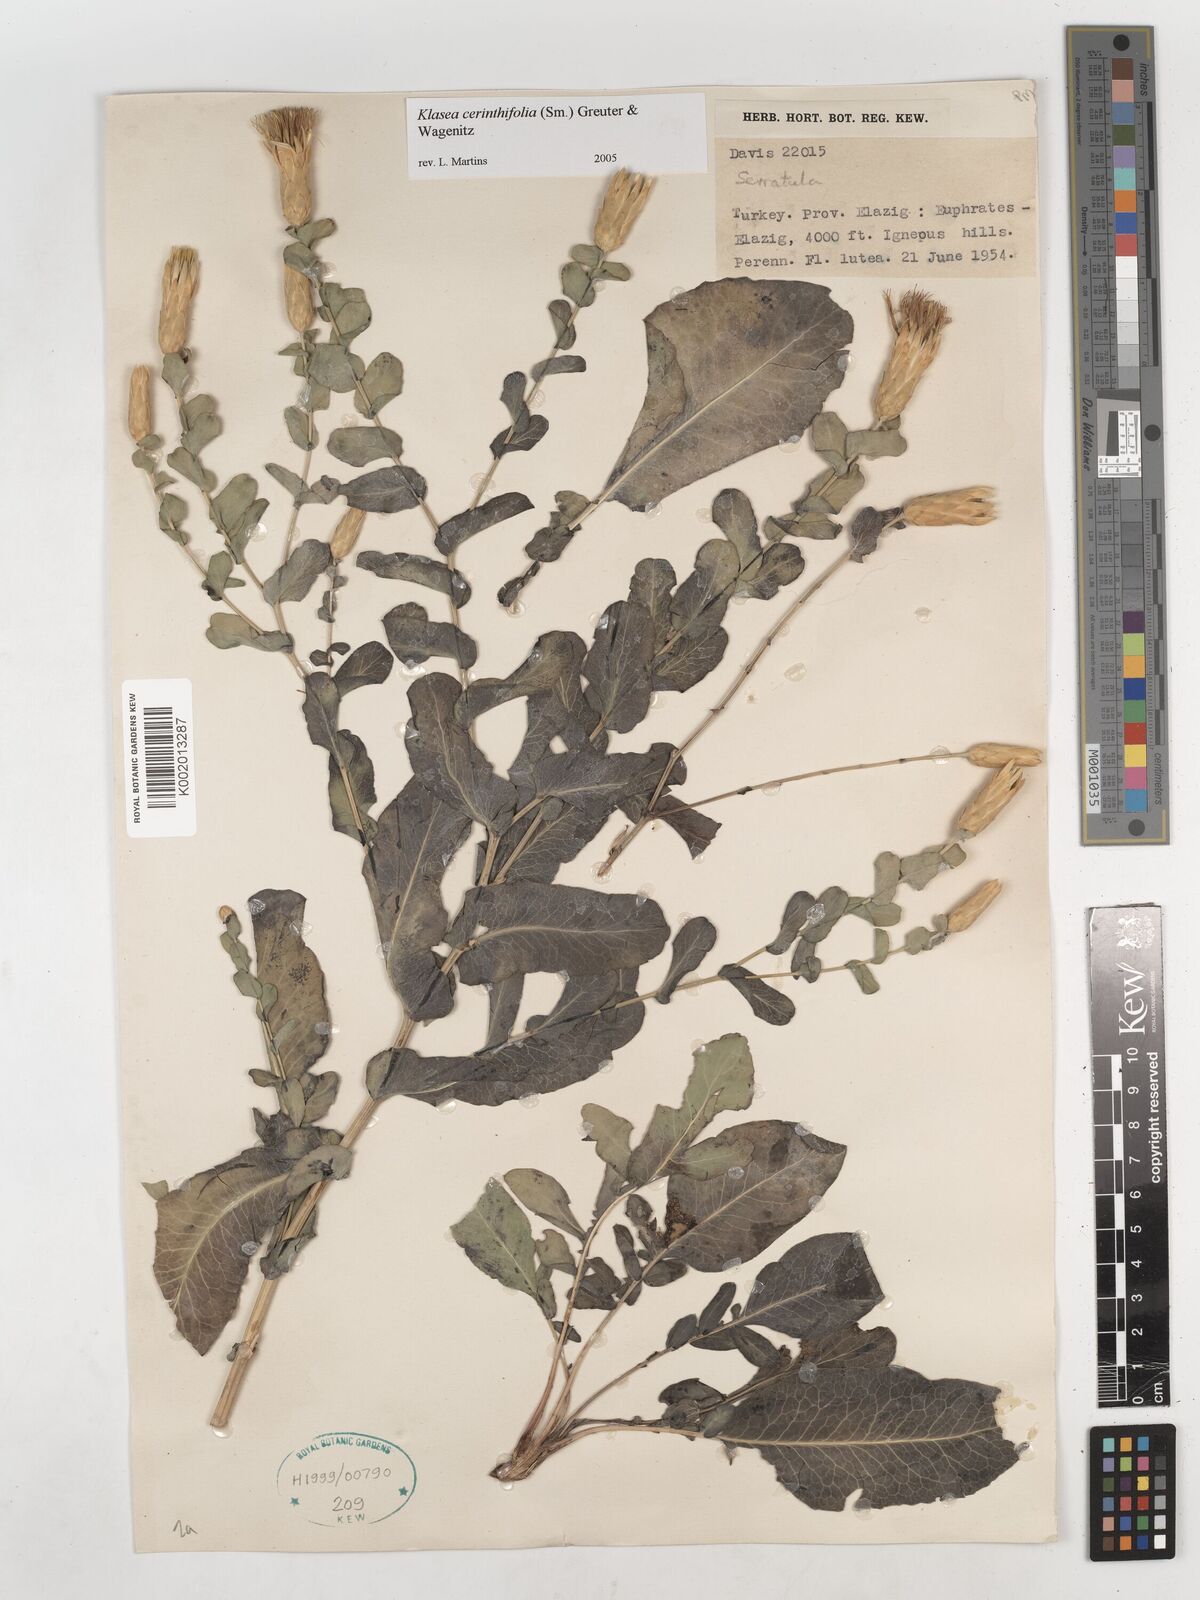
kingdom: Plantae
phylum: Tracheophyta
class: Magnoliopsida
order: Asterales
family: Asteraceae
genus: Klasea
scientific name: Klasea cerinthifolia
